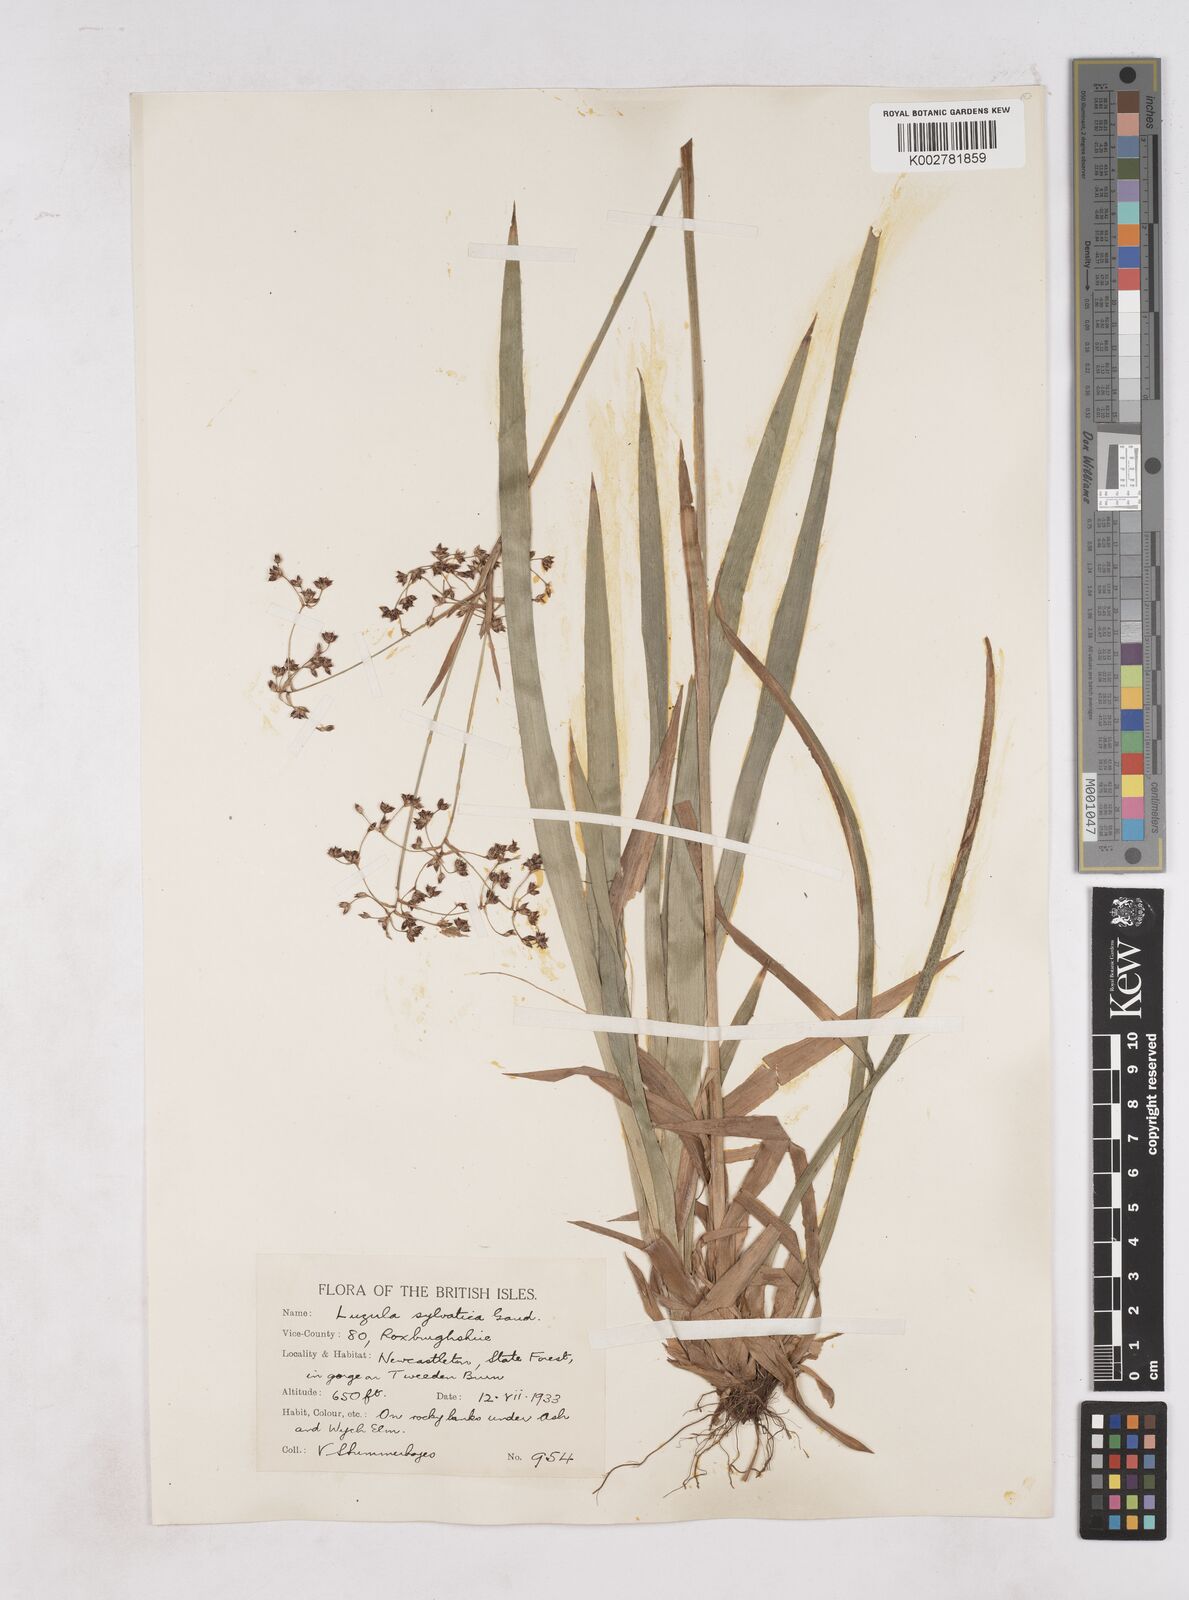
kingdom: Plantae
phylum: Tracheophyta
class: Liliopsida
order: Poales
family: Juncaceae
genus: Luzula
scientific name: Luzula sylvatica
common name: Great wood-rush
